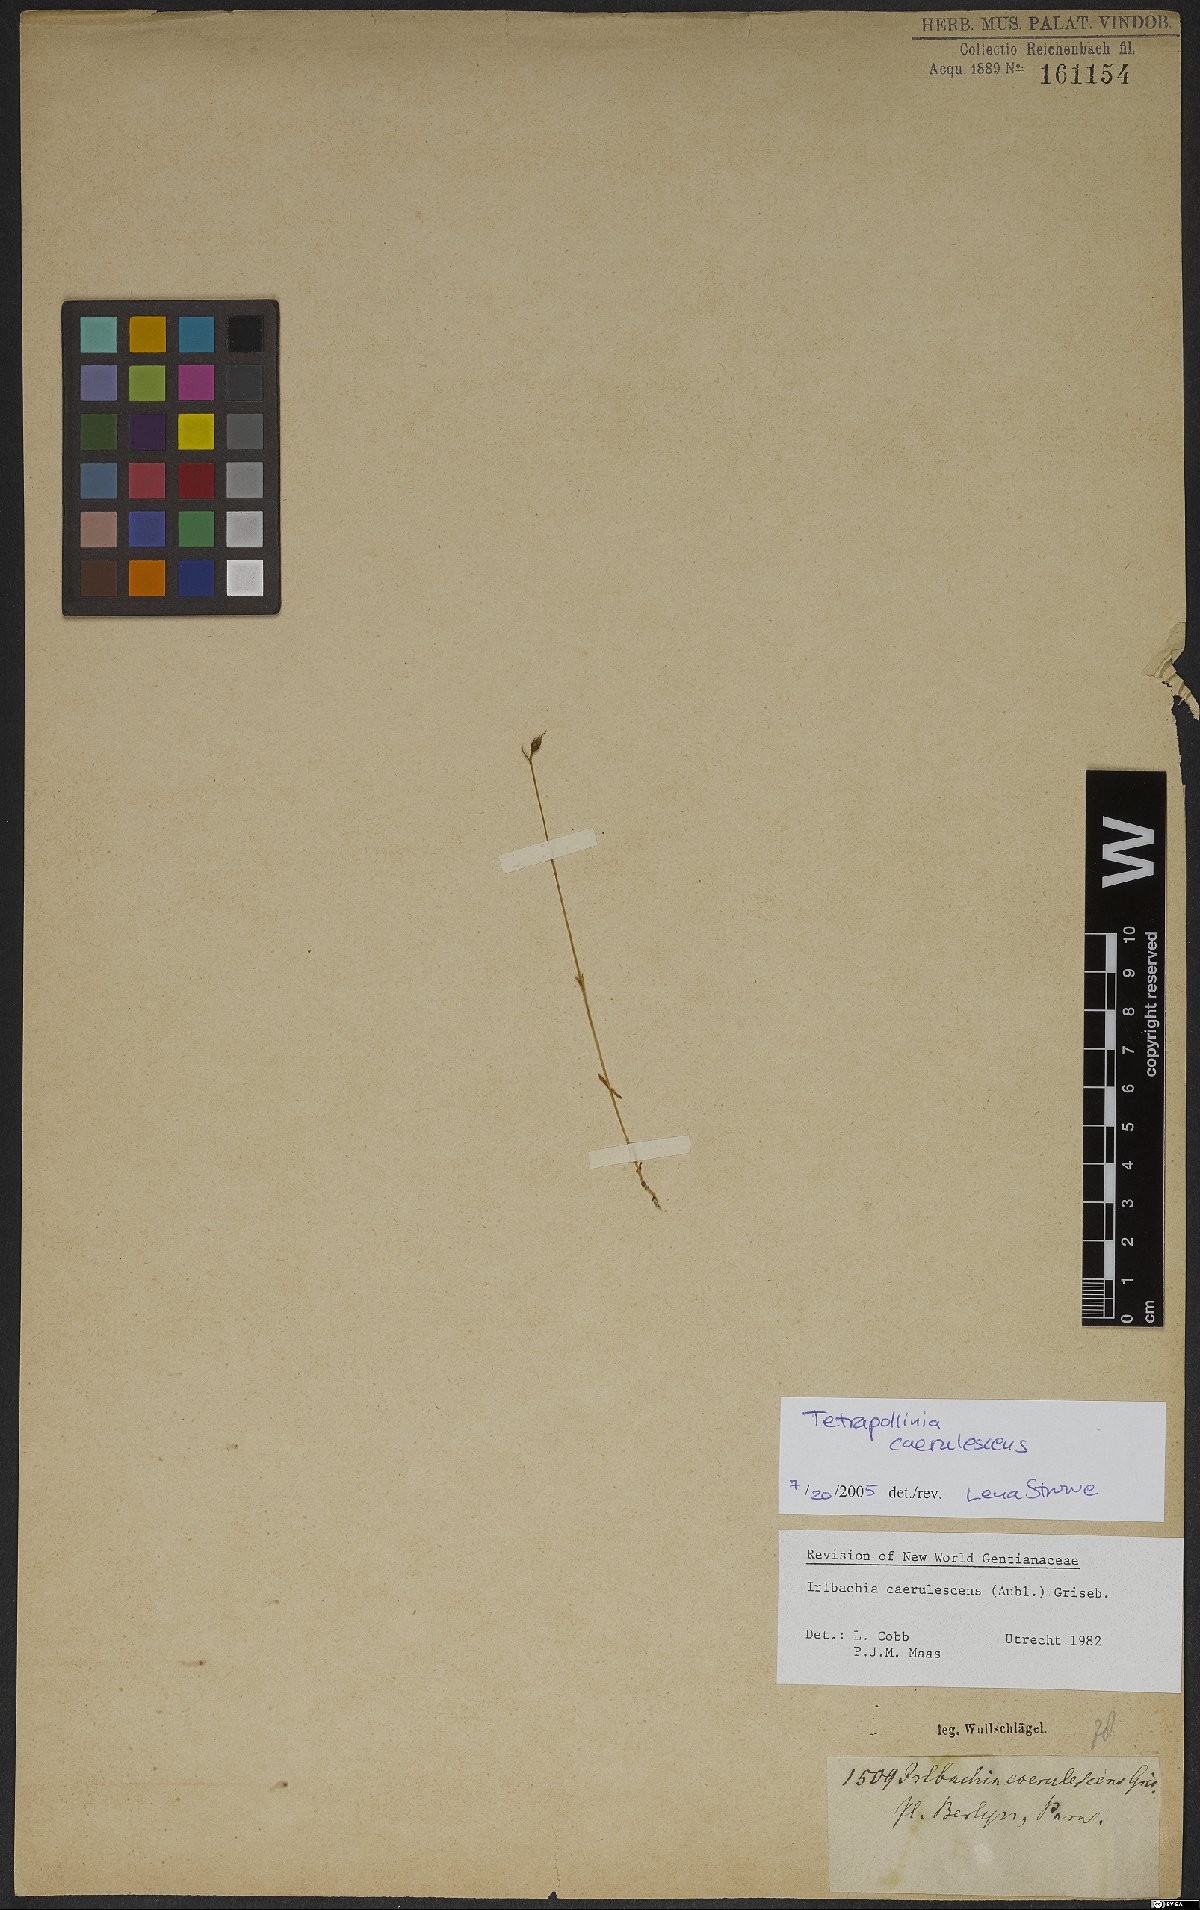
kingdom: Plantae
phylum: Tracheophyta
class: Magnoliopsida
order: Gentianales
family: Gentianaceae
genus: Tetrapollinia
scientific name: Tetrapollinia caerulescens
